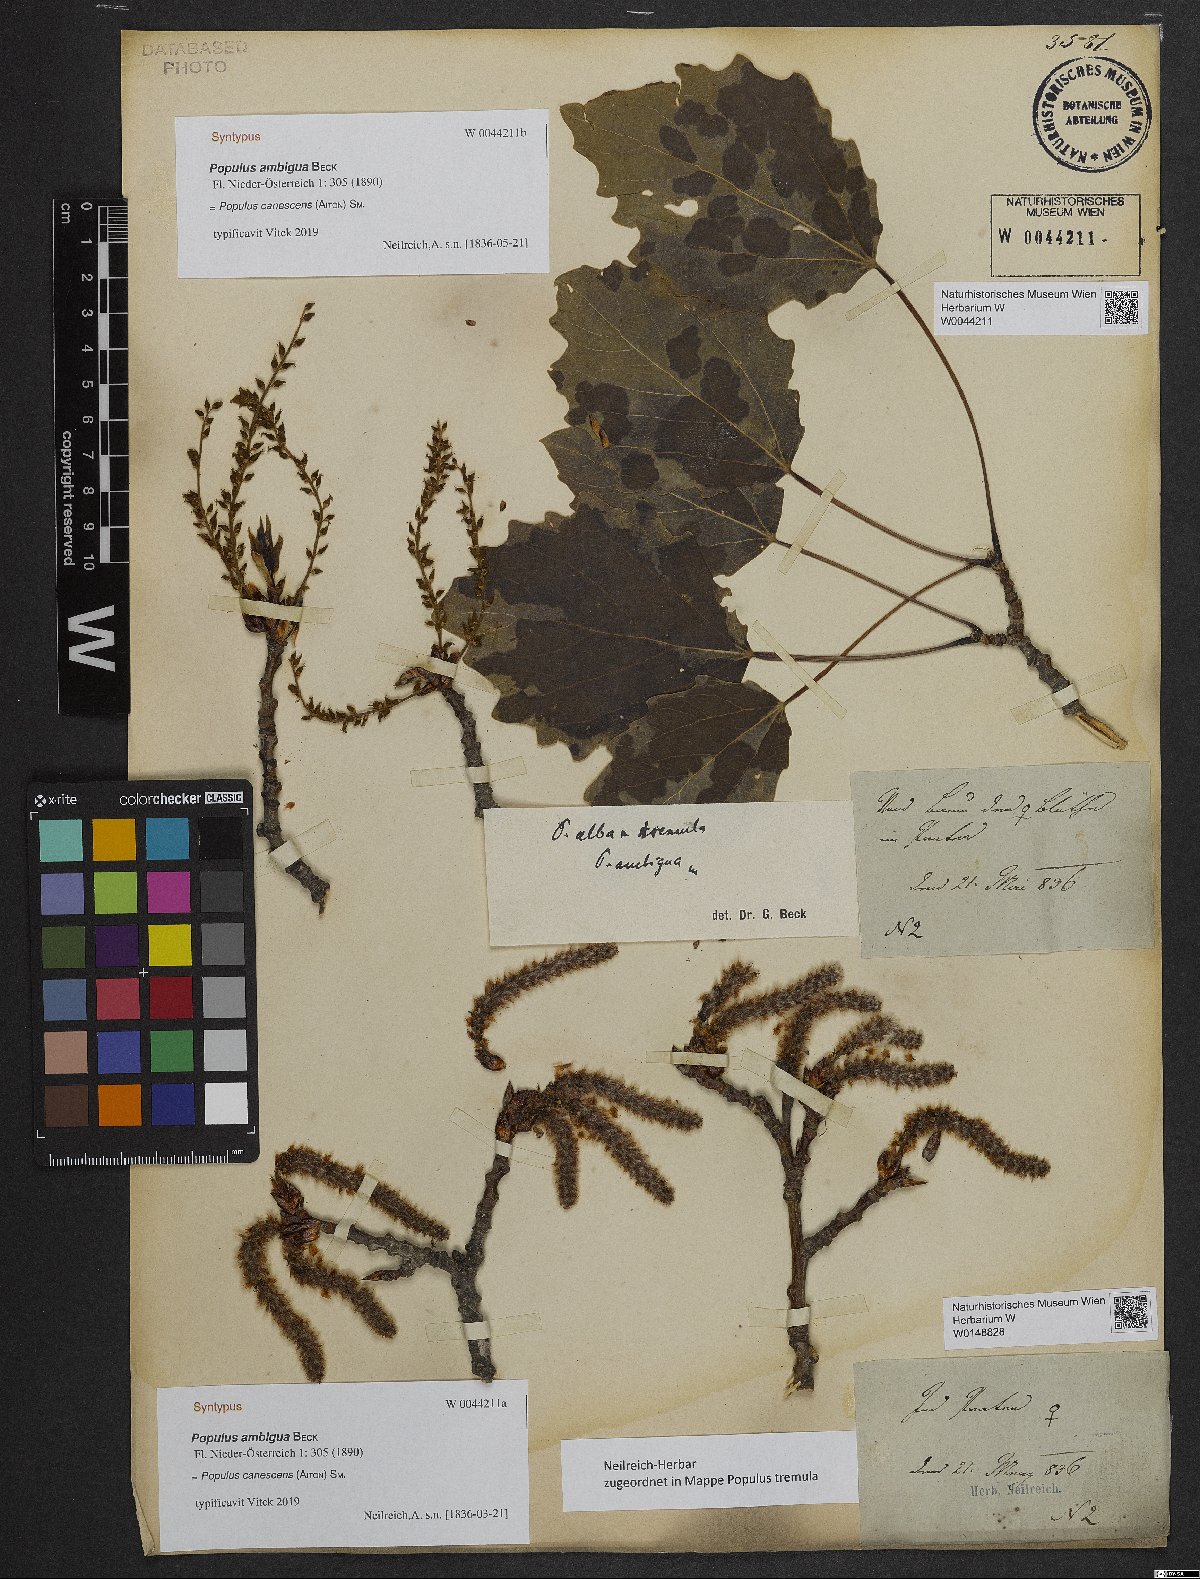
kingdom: Plantae
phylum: Tracheophyta
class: Magnoliopsida
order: Malpighiales
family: Salicaceae
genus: Populus
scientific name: Populus canescens
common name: Gray poplar
